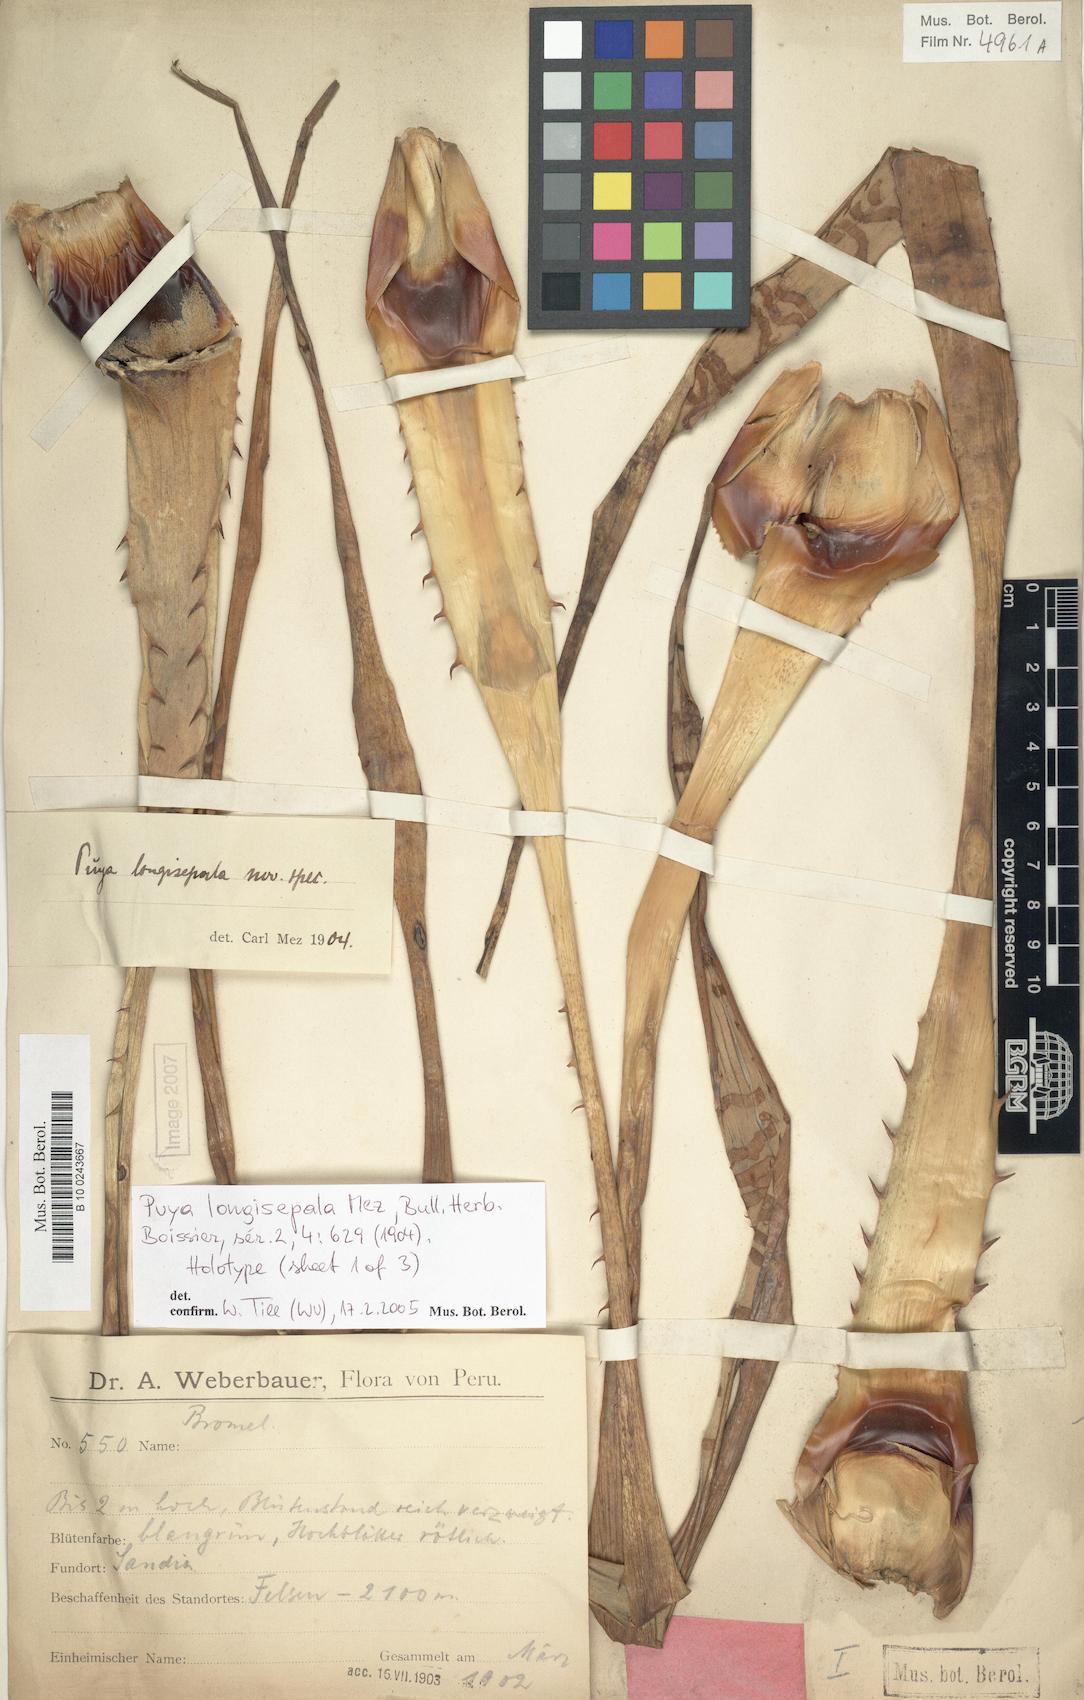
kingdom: Plantae
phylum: Tracheophyta
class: Liliopsida
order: Poales
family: Bromeliaceae
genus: Puya
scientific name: Puya longisepala
